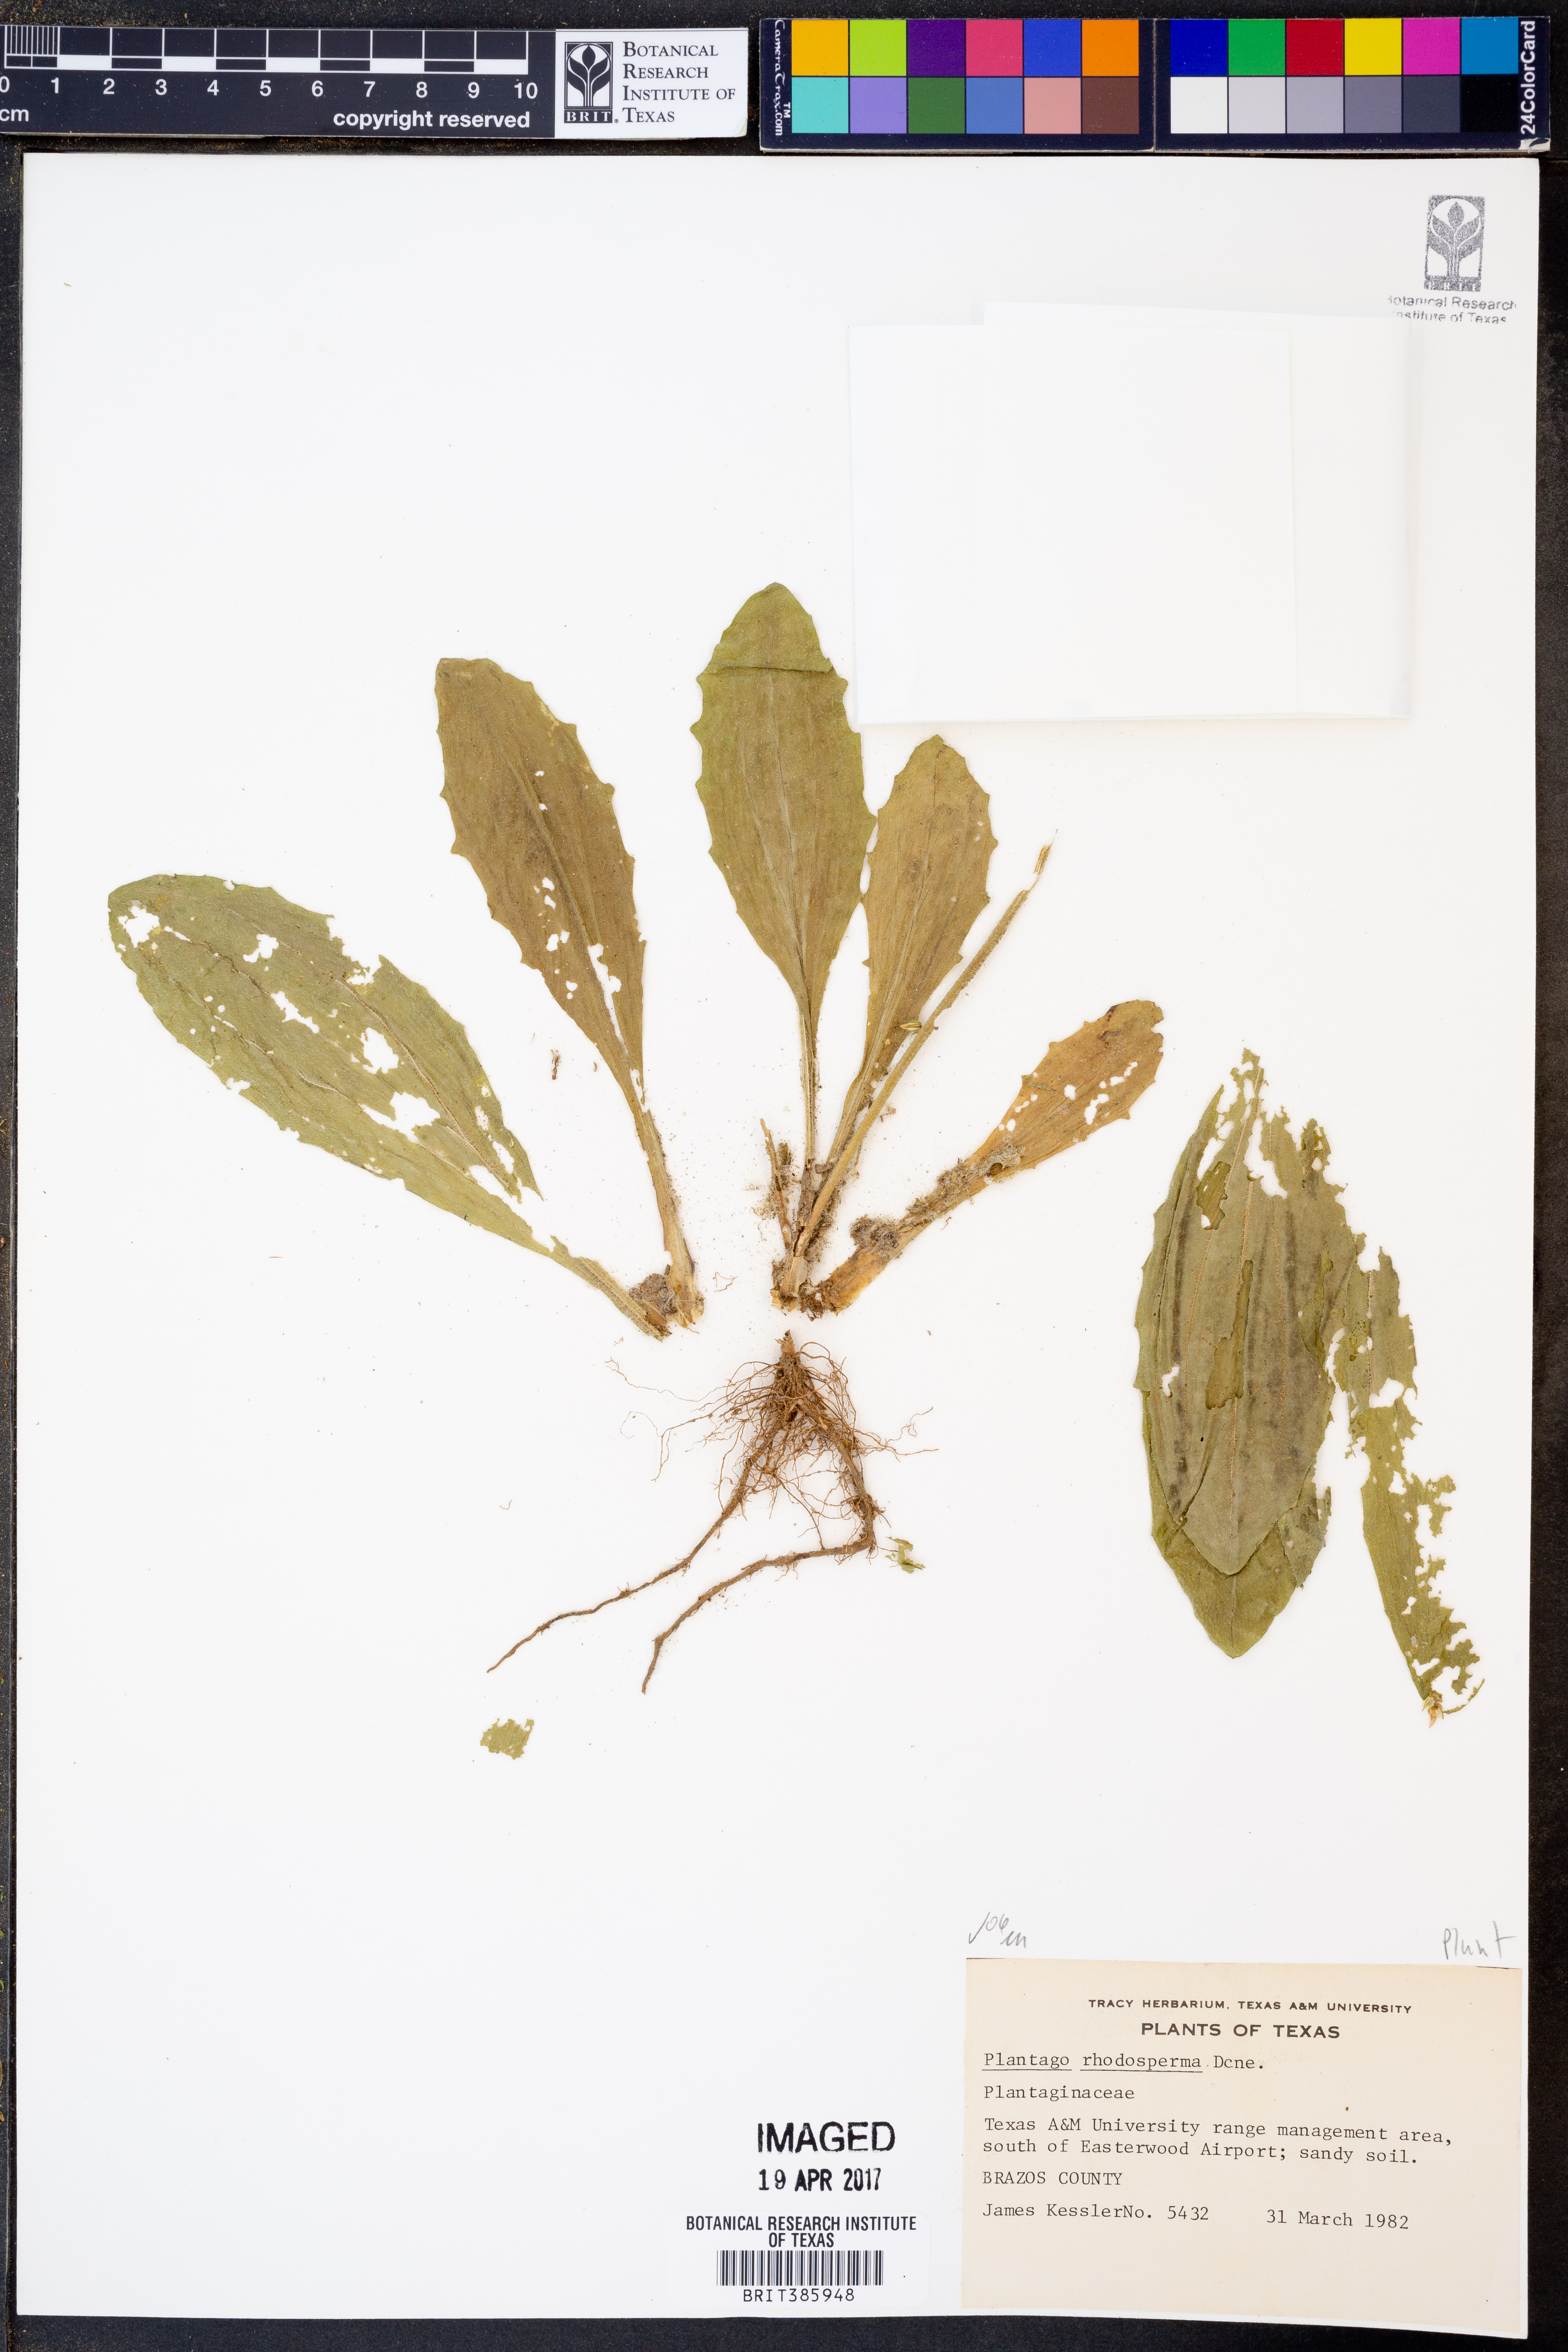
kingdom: Plantae
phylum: Tracheophyta
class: Magnoliopsida
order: Lamiales
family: Plantaginaceae
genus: Plantago
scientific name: Plantago rhodosperma
